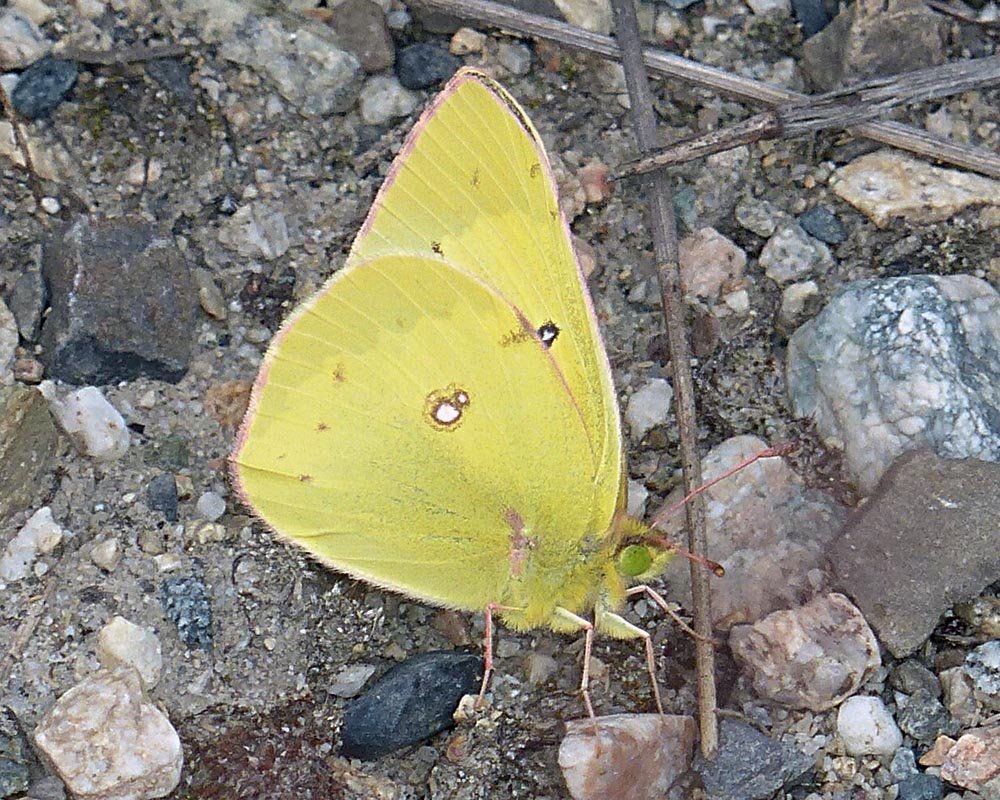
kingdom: Animalia
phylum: Arthropoda
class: Insecta
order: Lepidoptera
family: Pieridae
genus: Colias
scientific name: Colias philodice
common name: Clouded Sulphur
